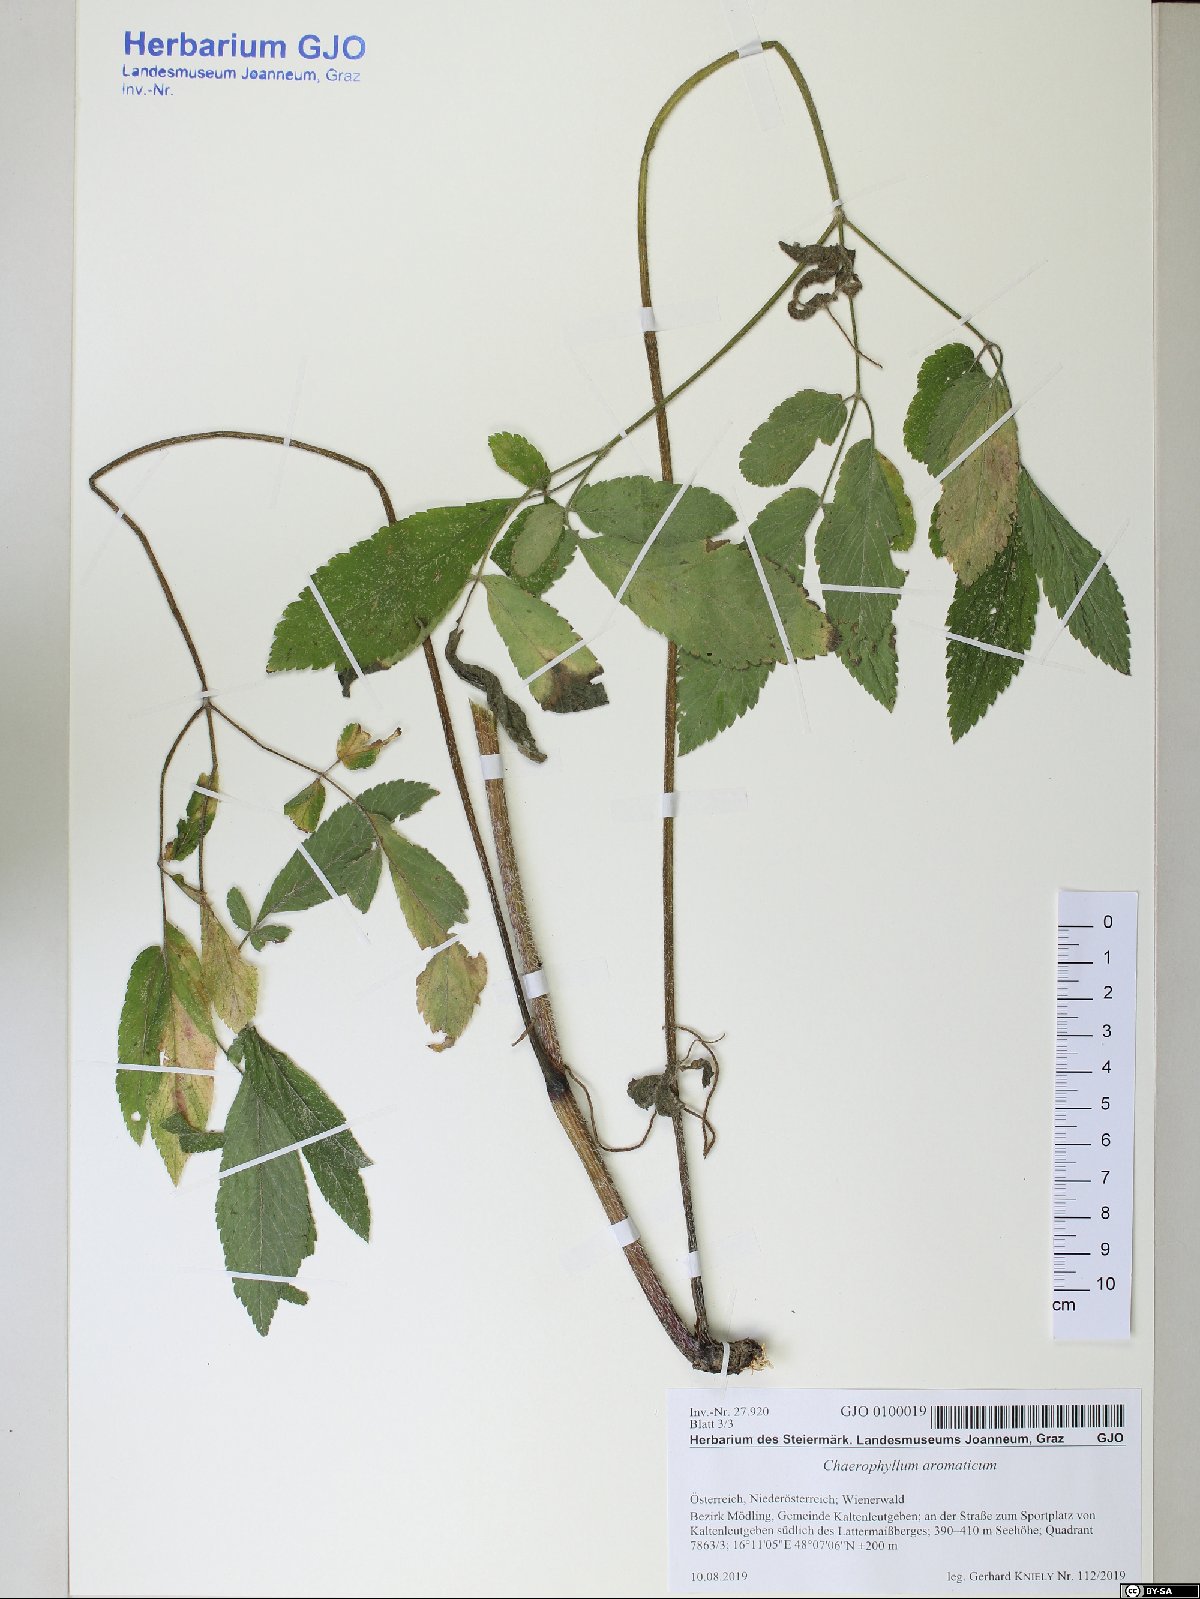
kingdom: Plantae
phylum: Tracheophyta
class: Magnoliopsida
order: Apiales
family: Apiaceae
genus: Chaerophyllum
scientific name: Chaerophyllum aromaticum
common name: Broadleaf chervil
